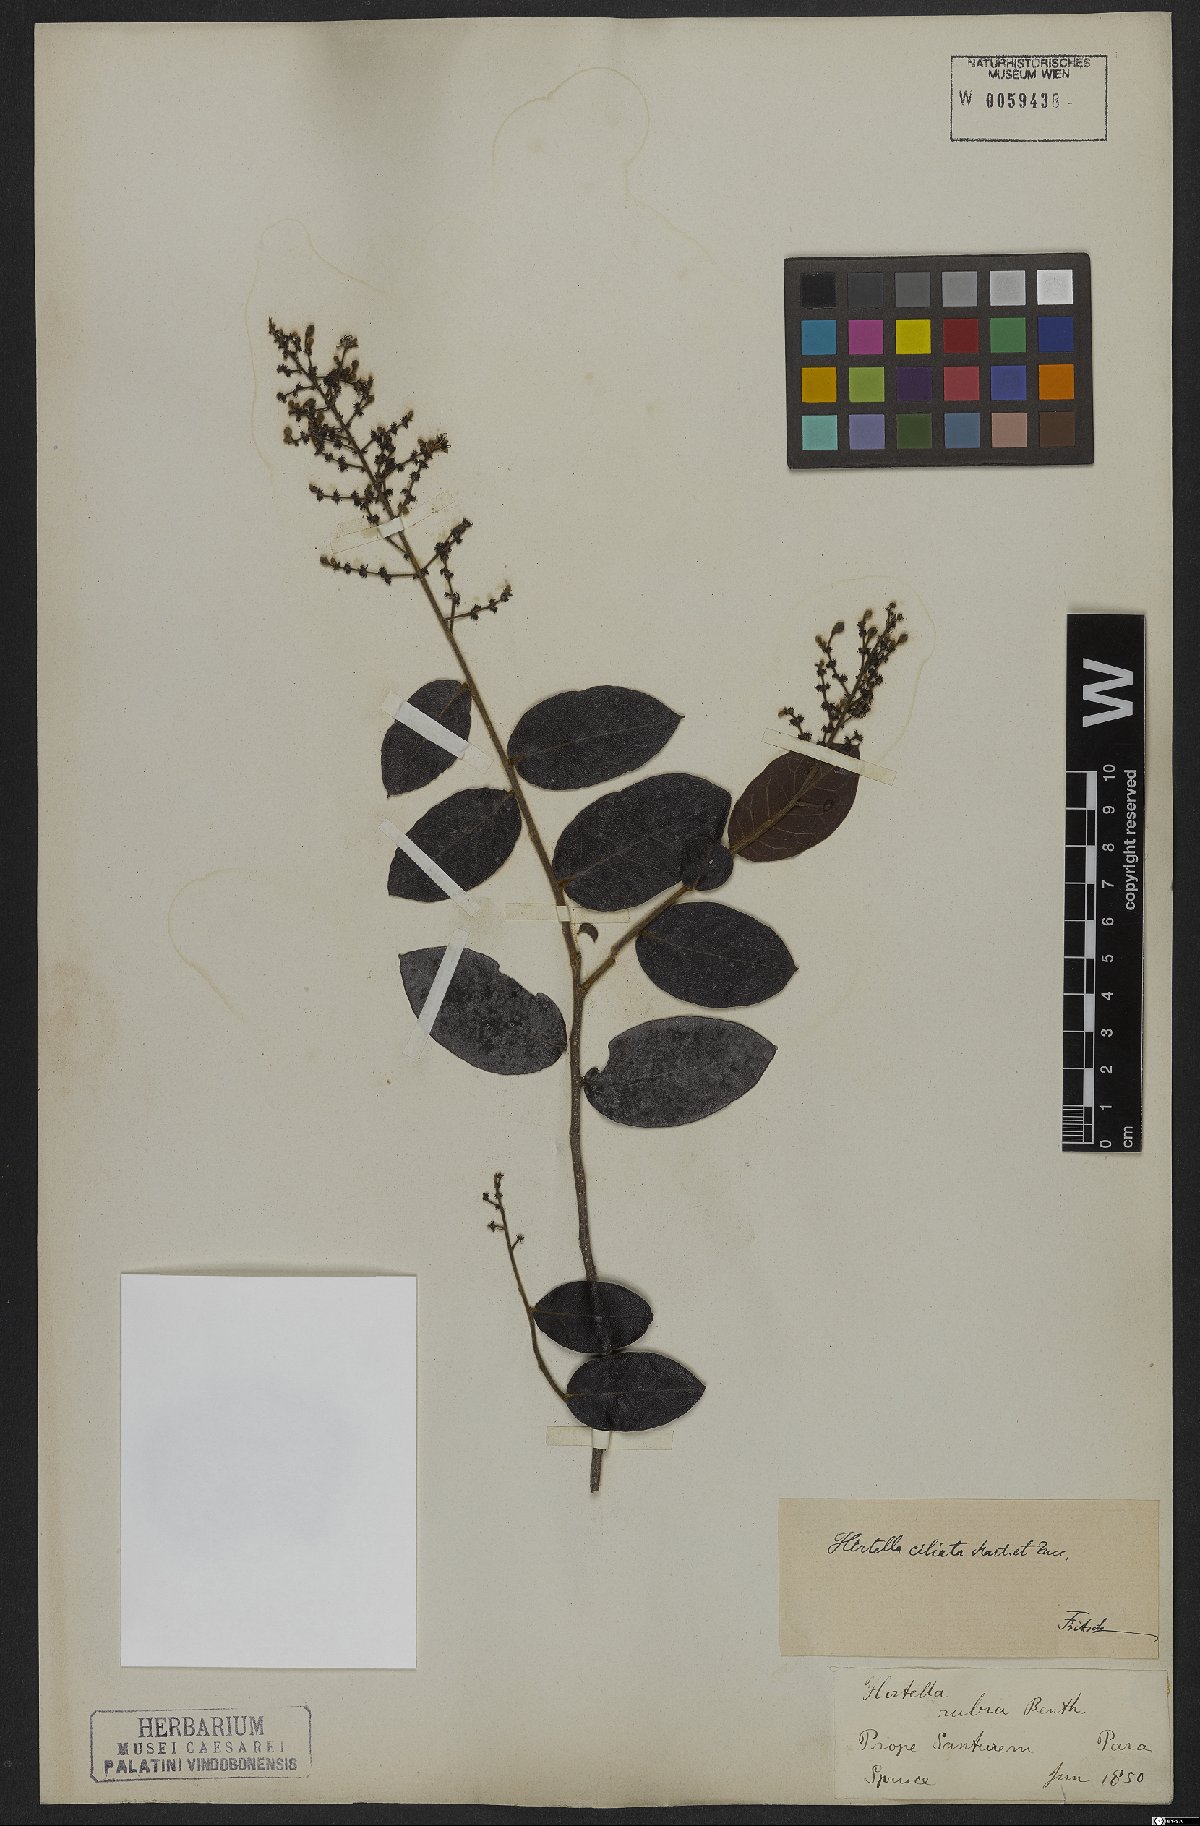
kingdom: Plantae
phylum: Tracheophyta
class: Magnoliopsida
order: Malpighiales
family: Chrysobalanaceae
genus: Hirtella
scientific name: Hirtella ciliata
